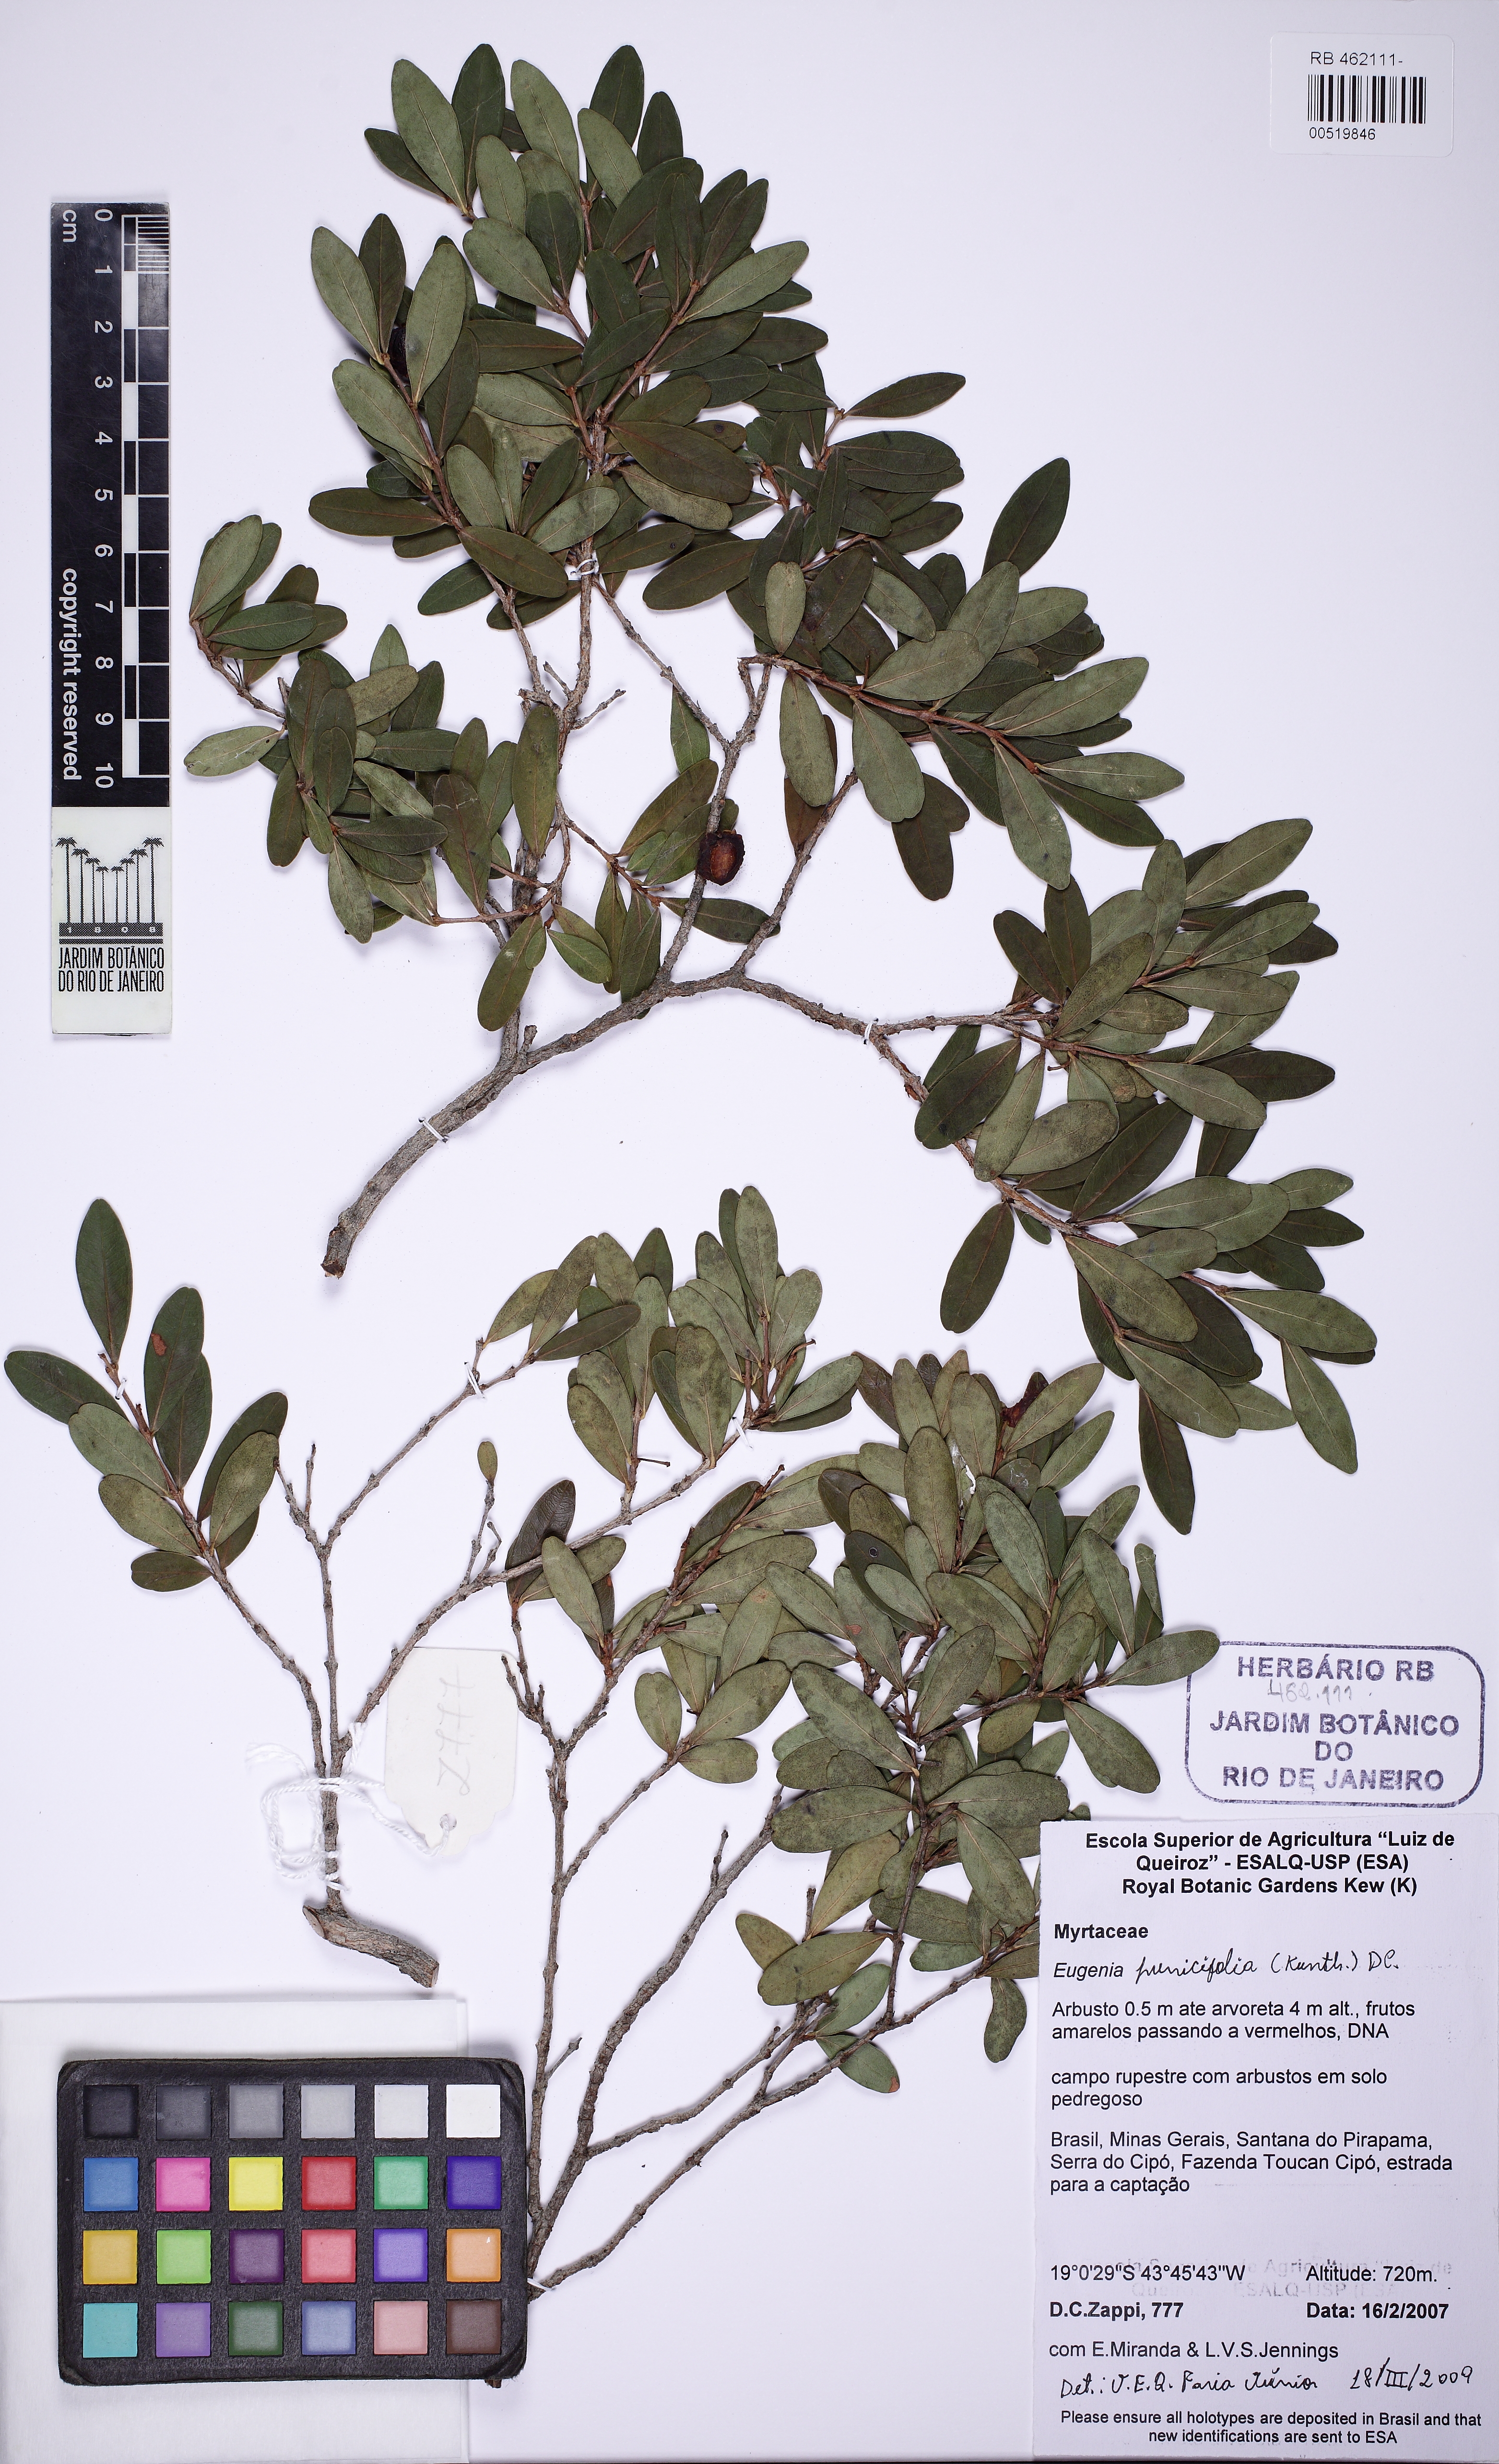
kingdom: Plantae
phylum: Tracheophyta
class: Magnoliopsida
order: Myrtales
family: Myrtaceae
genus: Eugenia
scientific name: Eugenia punicifolia
